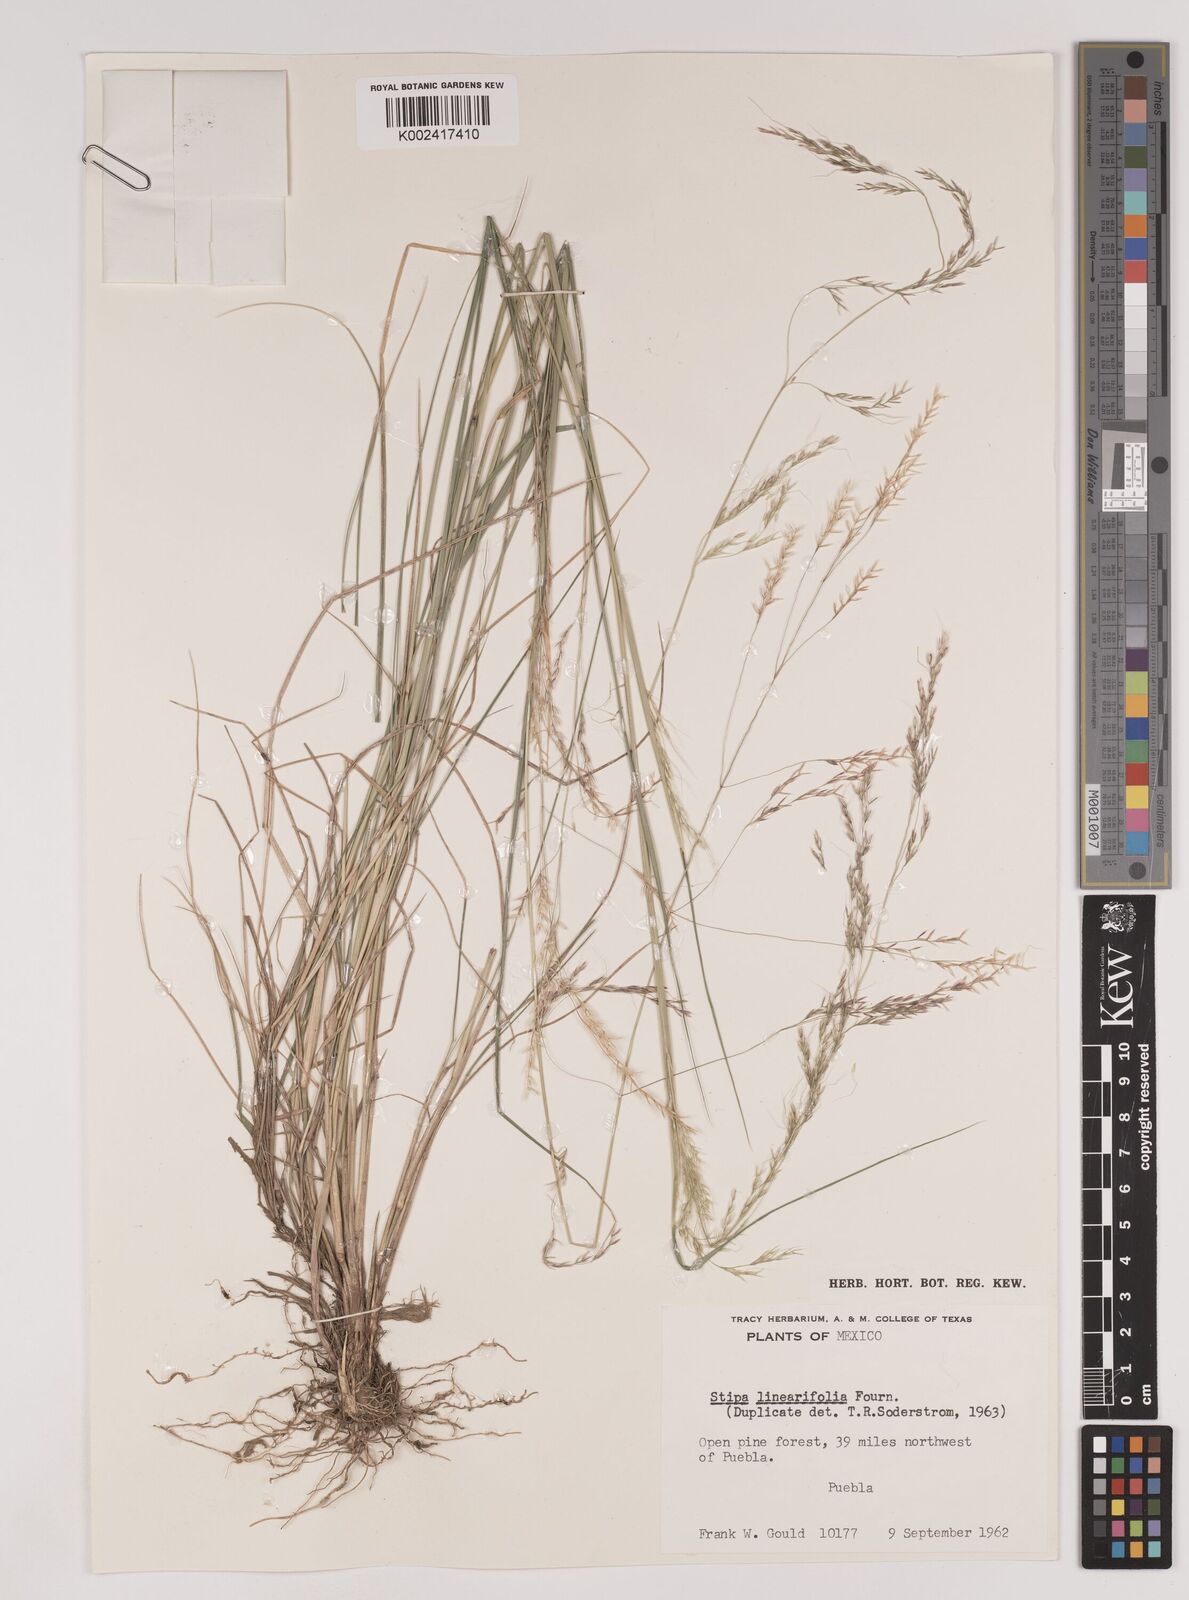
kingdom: Plantae
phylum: Tracheophyta
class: Liliopsida
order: Poales
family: Poaceae
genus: Nassella
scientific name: Nassella caespitosa
